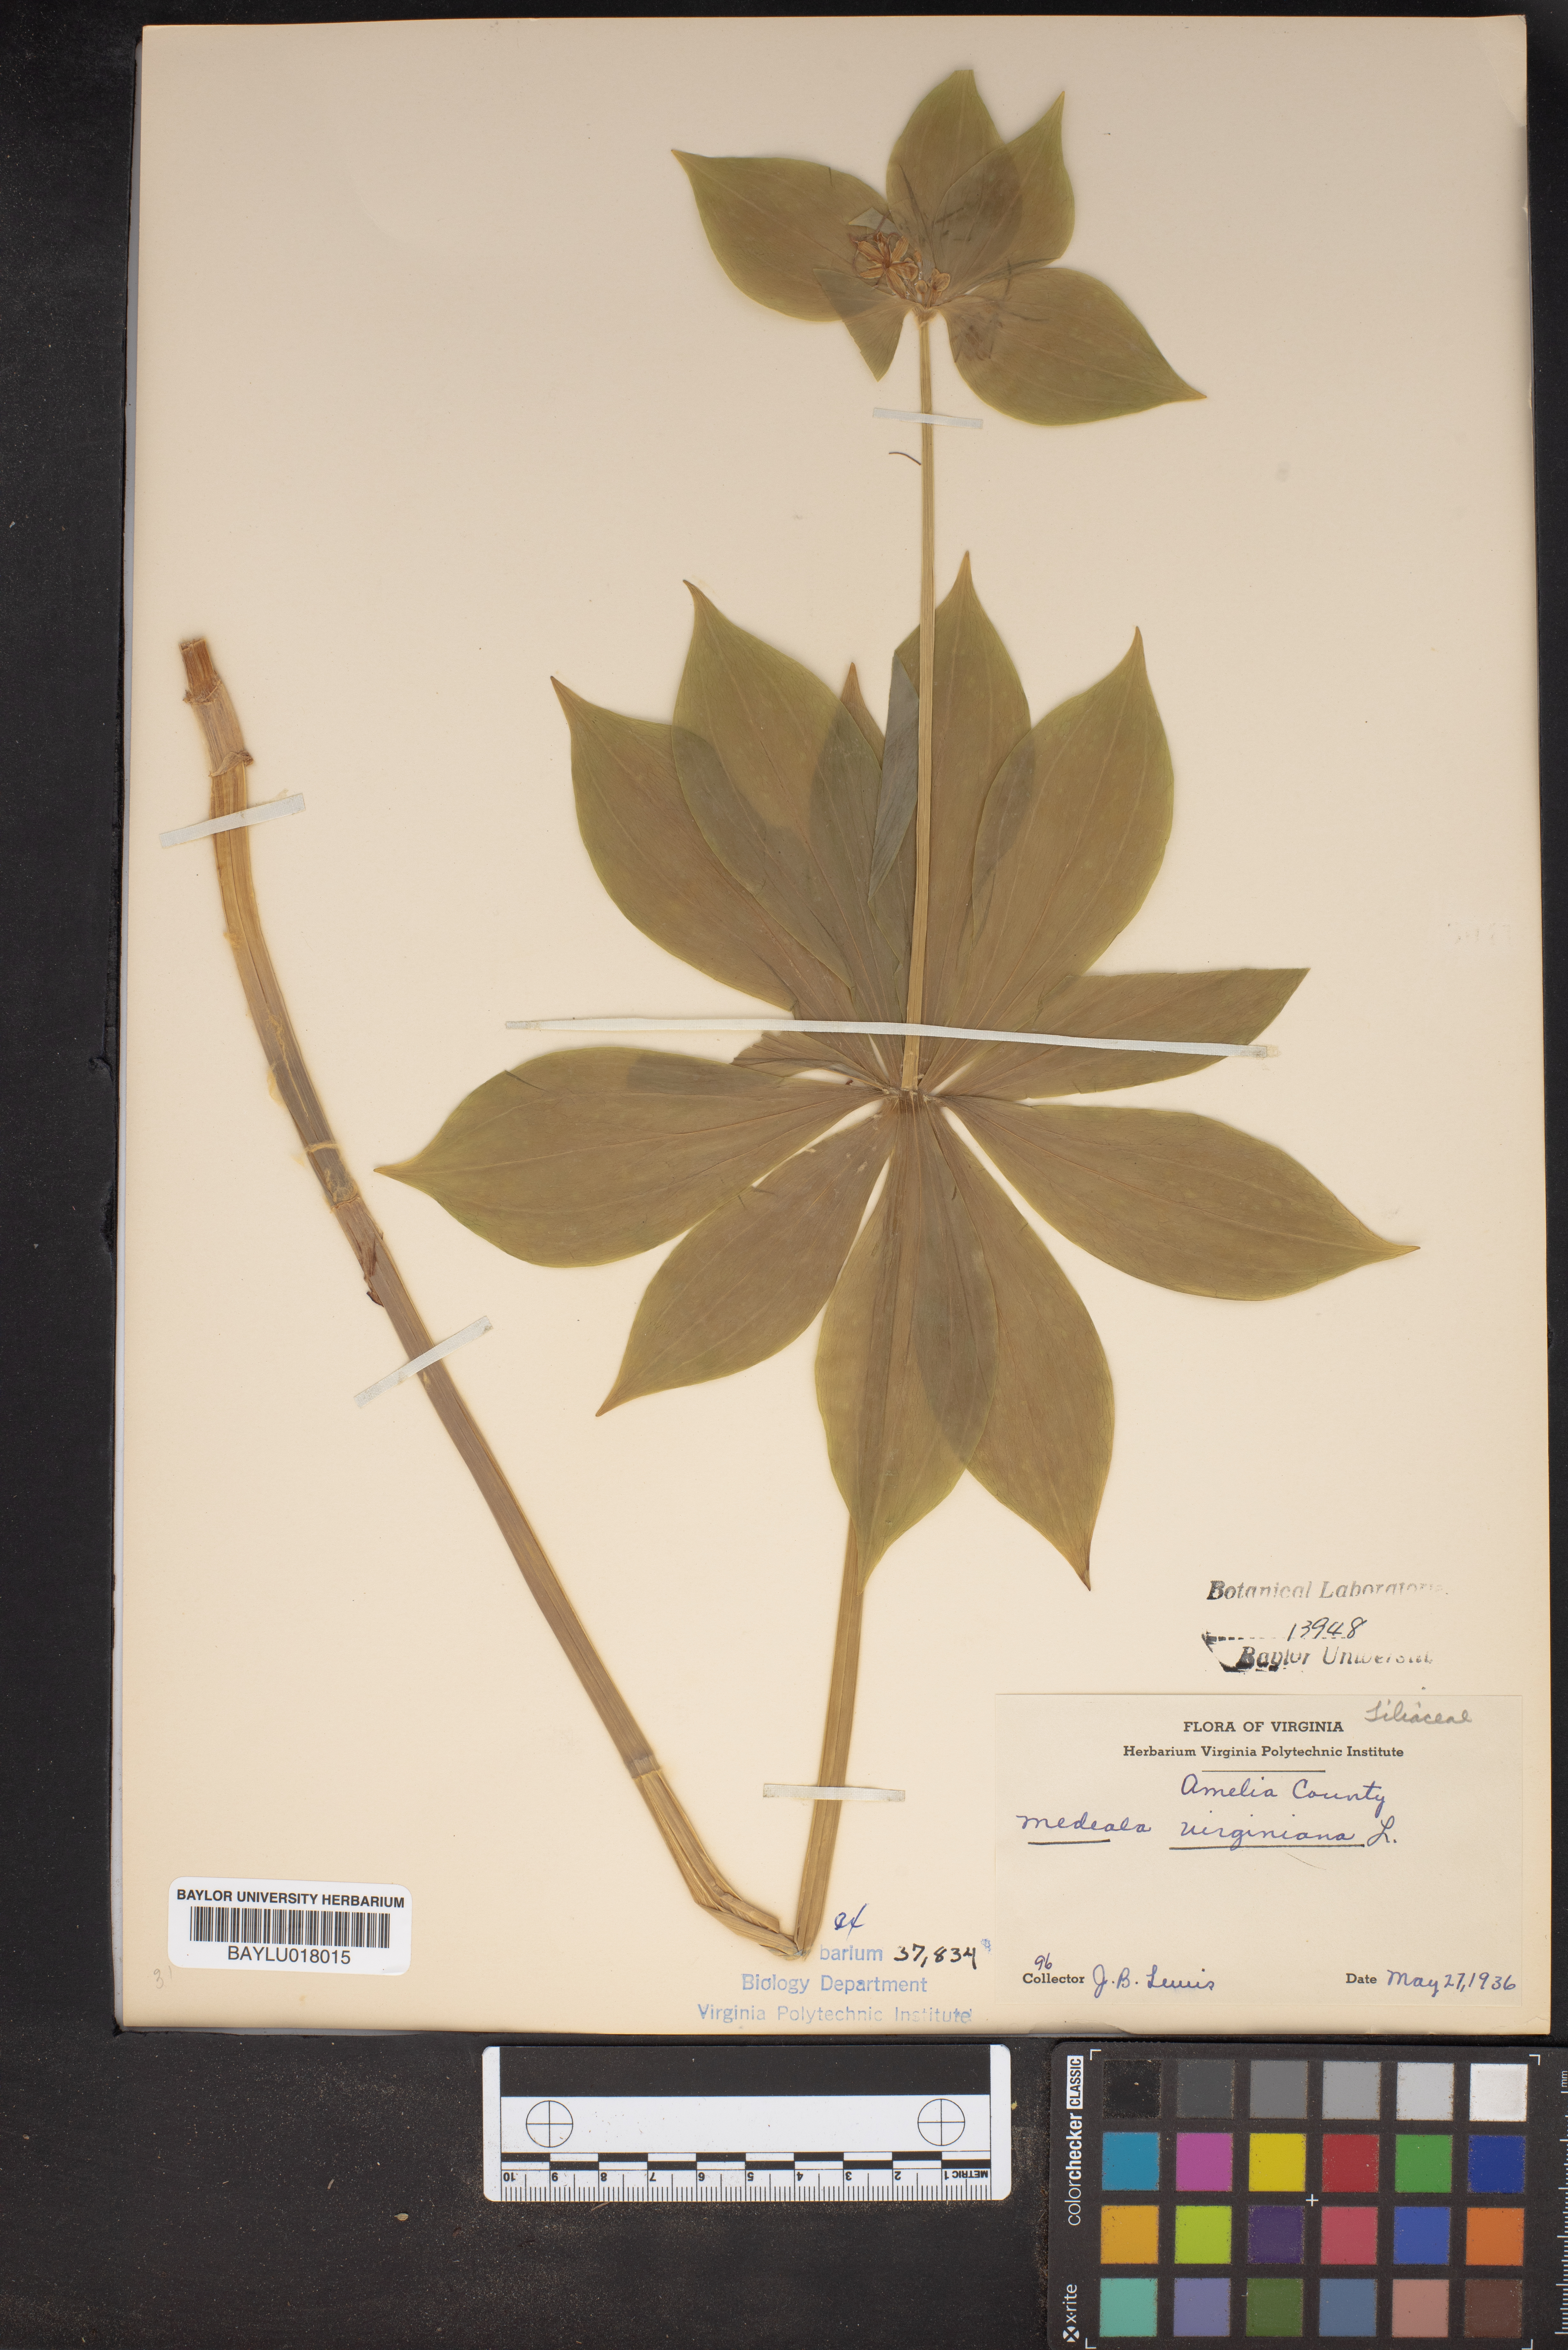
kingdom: Plantae
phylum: Tracheophyta
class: Liliopsida
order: Liliales
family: Liliaceae
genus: Medeola
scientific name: Medeola virginiana
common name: Indian cucumber-root
